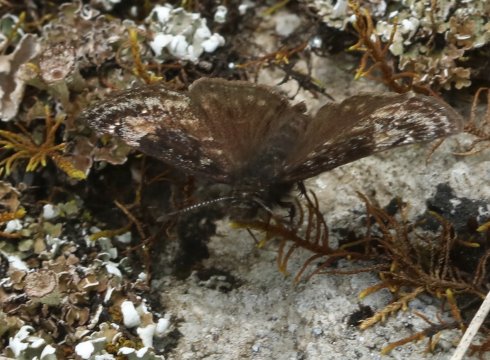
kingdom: Animalia
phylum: Arthropoda
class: Insecta
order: Lepidoptera
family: Hesperiidae
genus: Gesta
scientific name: Gesta
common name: Juvenal's Duskywing
